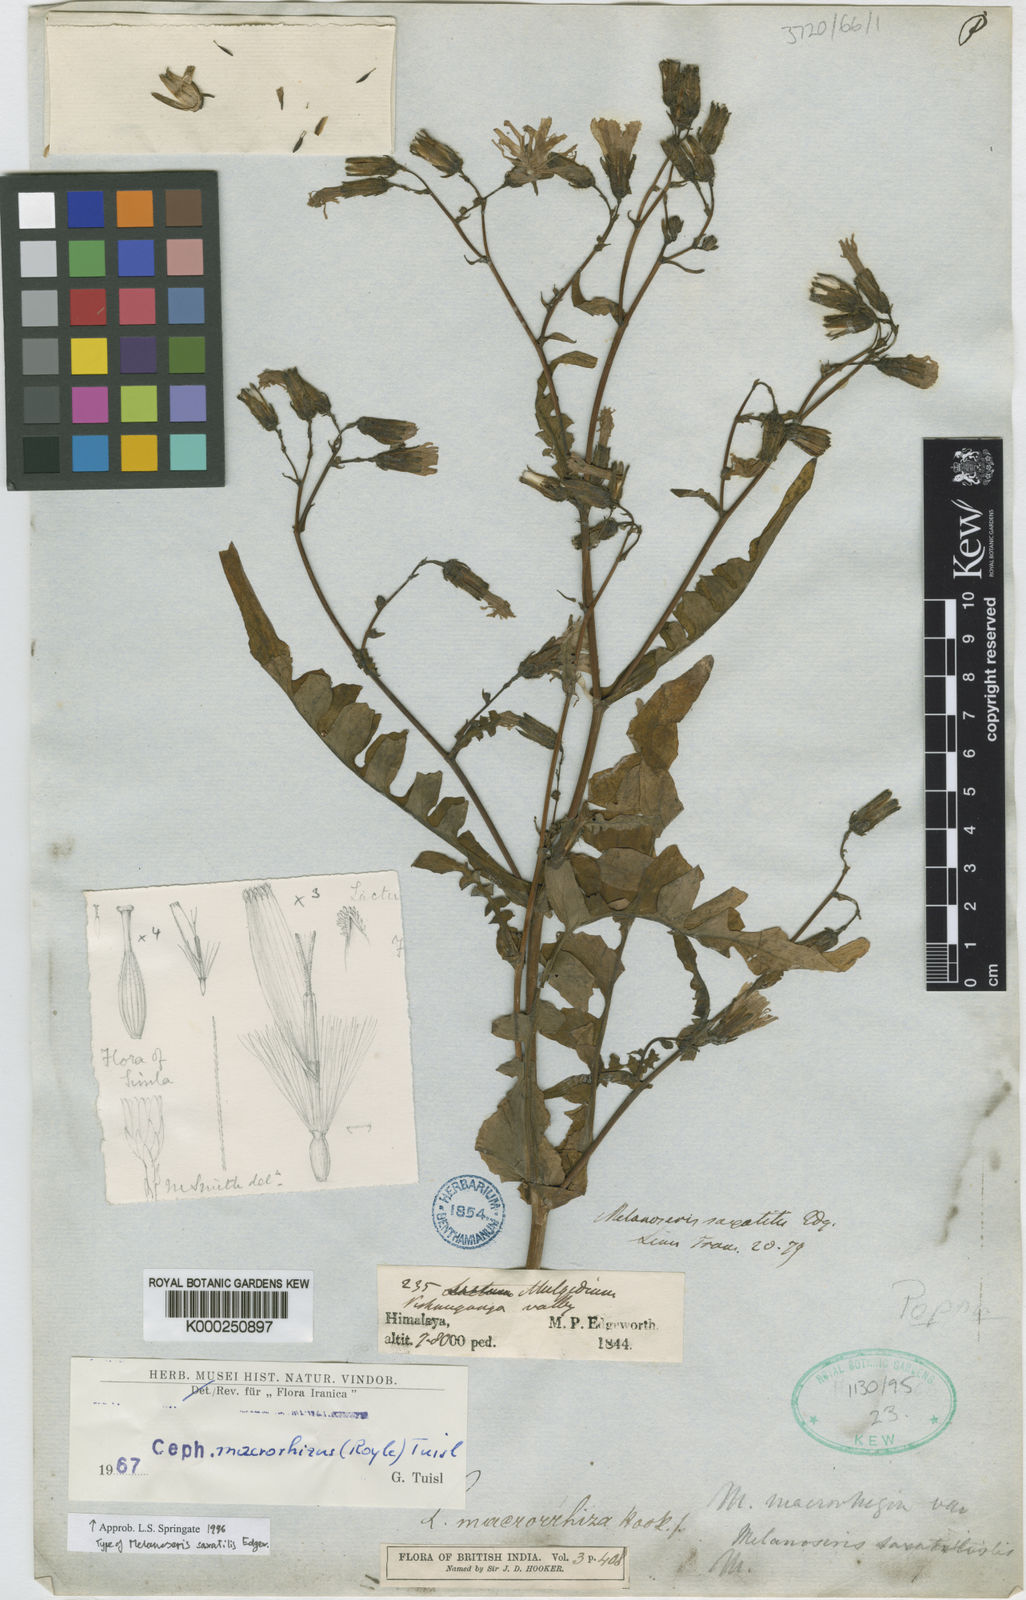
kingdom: Plantae
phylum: Tracheophyta
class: Magnoliopsida
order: Asterales
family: Asteraceae
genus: Melanoseris
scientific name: Melanoseris macrorhiza
